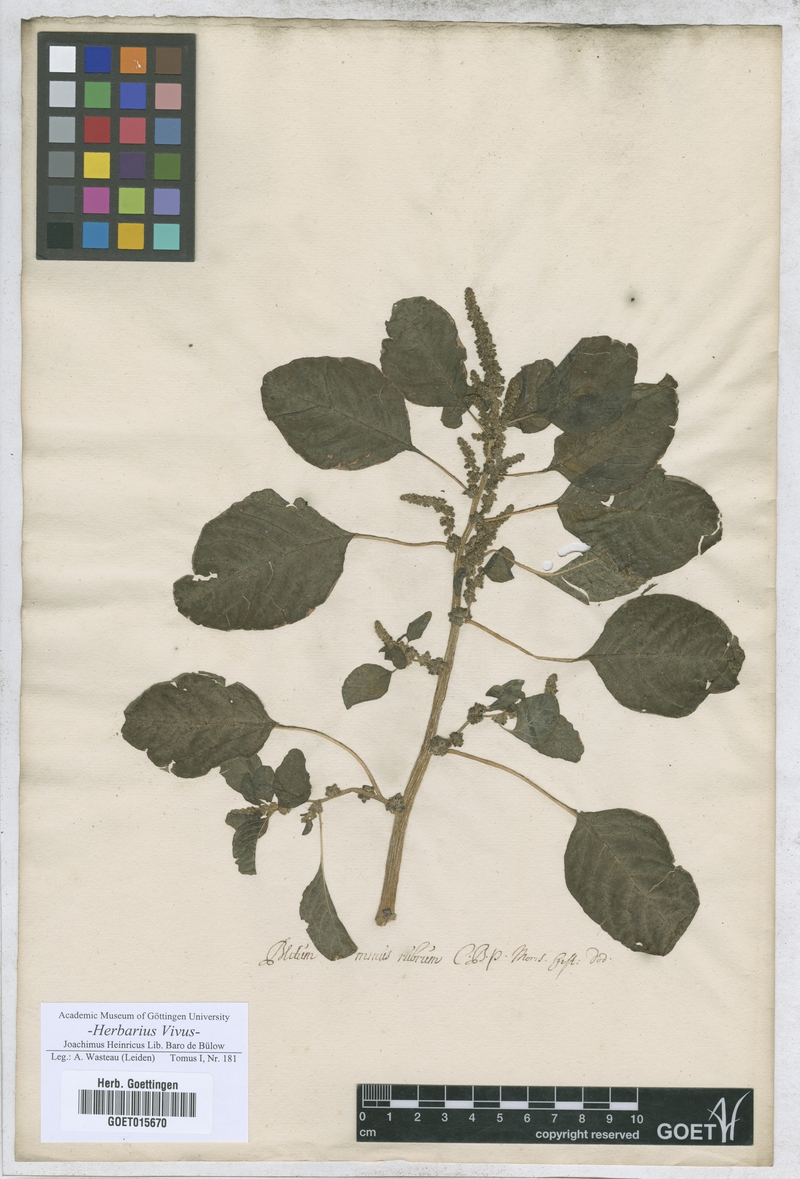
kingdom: Plantae
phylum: Tracheophyta
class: Magnoliopsida
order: Caryophyllales
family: Amaranthaceae
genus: Blitum
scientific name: Blitum
